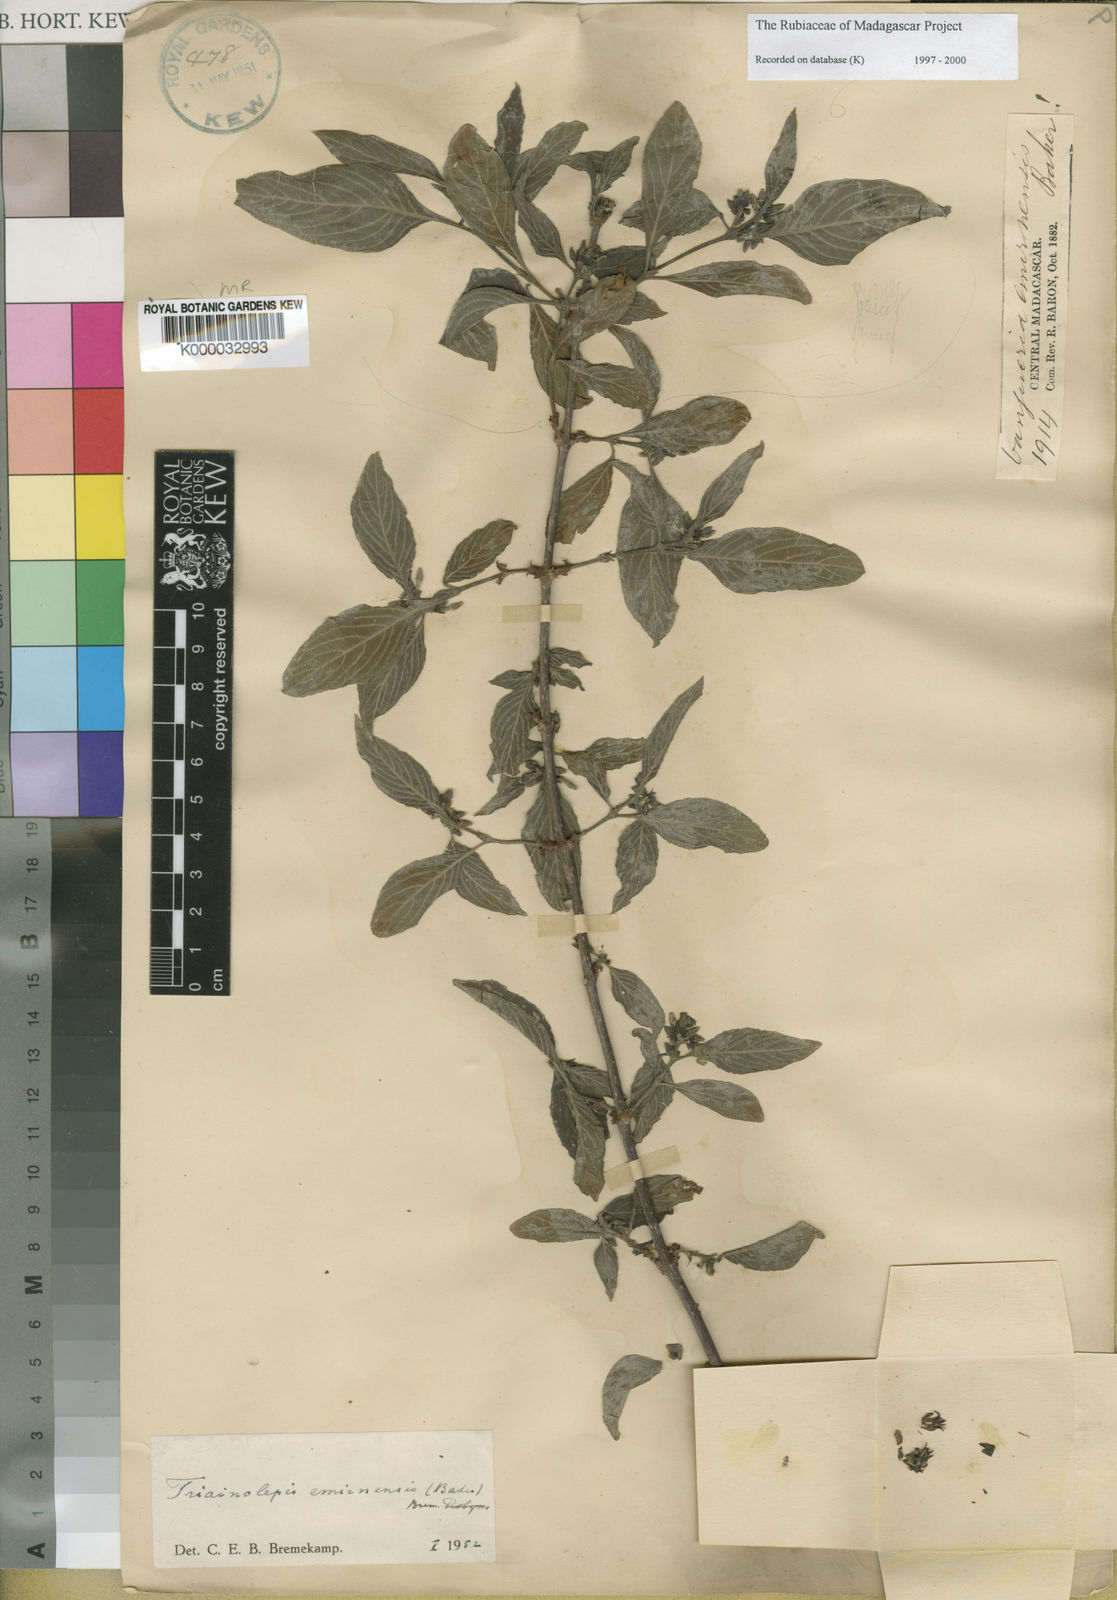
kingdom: Plantae
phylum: Tracheophyta
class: Magnoliopsida
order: Gentianales
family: Rubiaceae
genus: Triainolepis
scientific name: Triainolepis emirnensis
